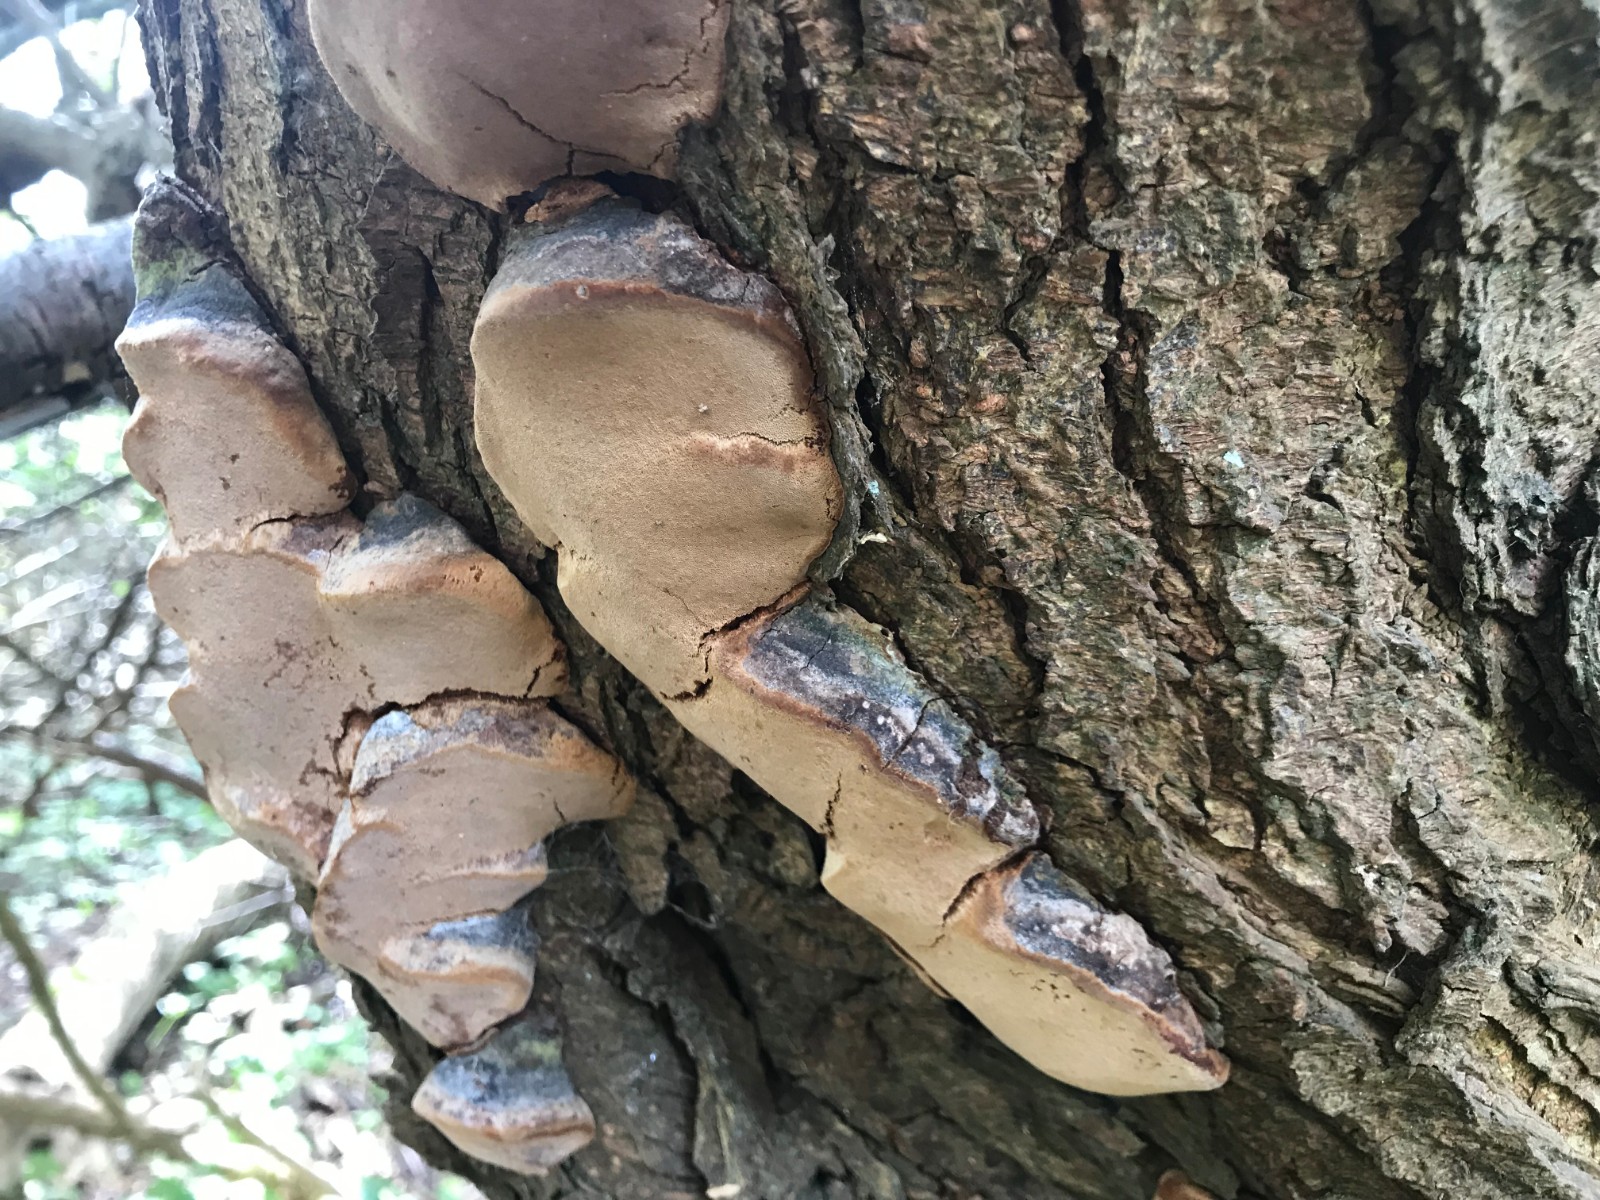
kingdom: Fungi
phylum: Basidiomycota
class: Agaricomycetes
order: Hymenochaetales
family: Hymenochaetaceae
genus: Phellinus
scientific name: Phellinus pomaceus
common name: blomme-ildporesvamp
